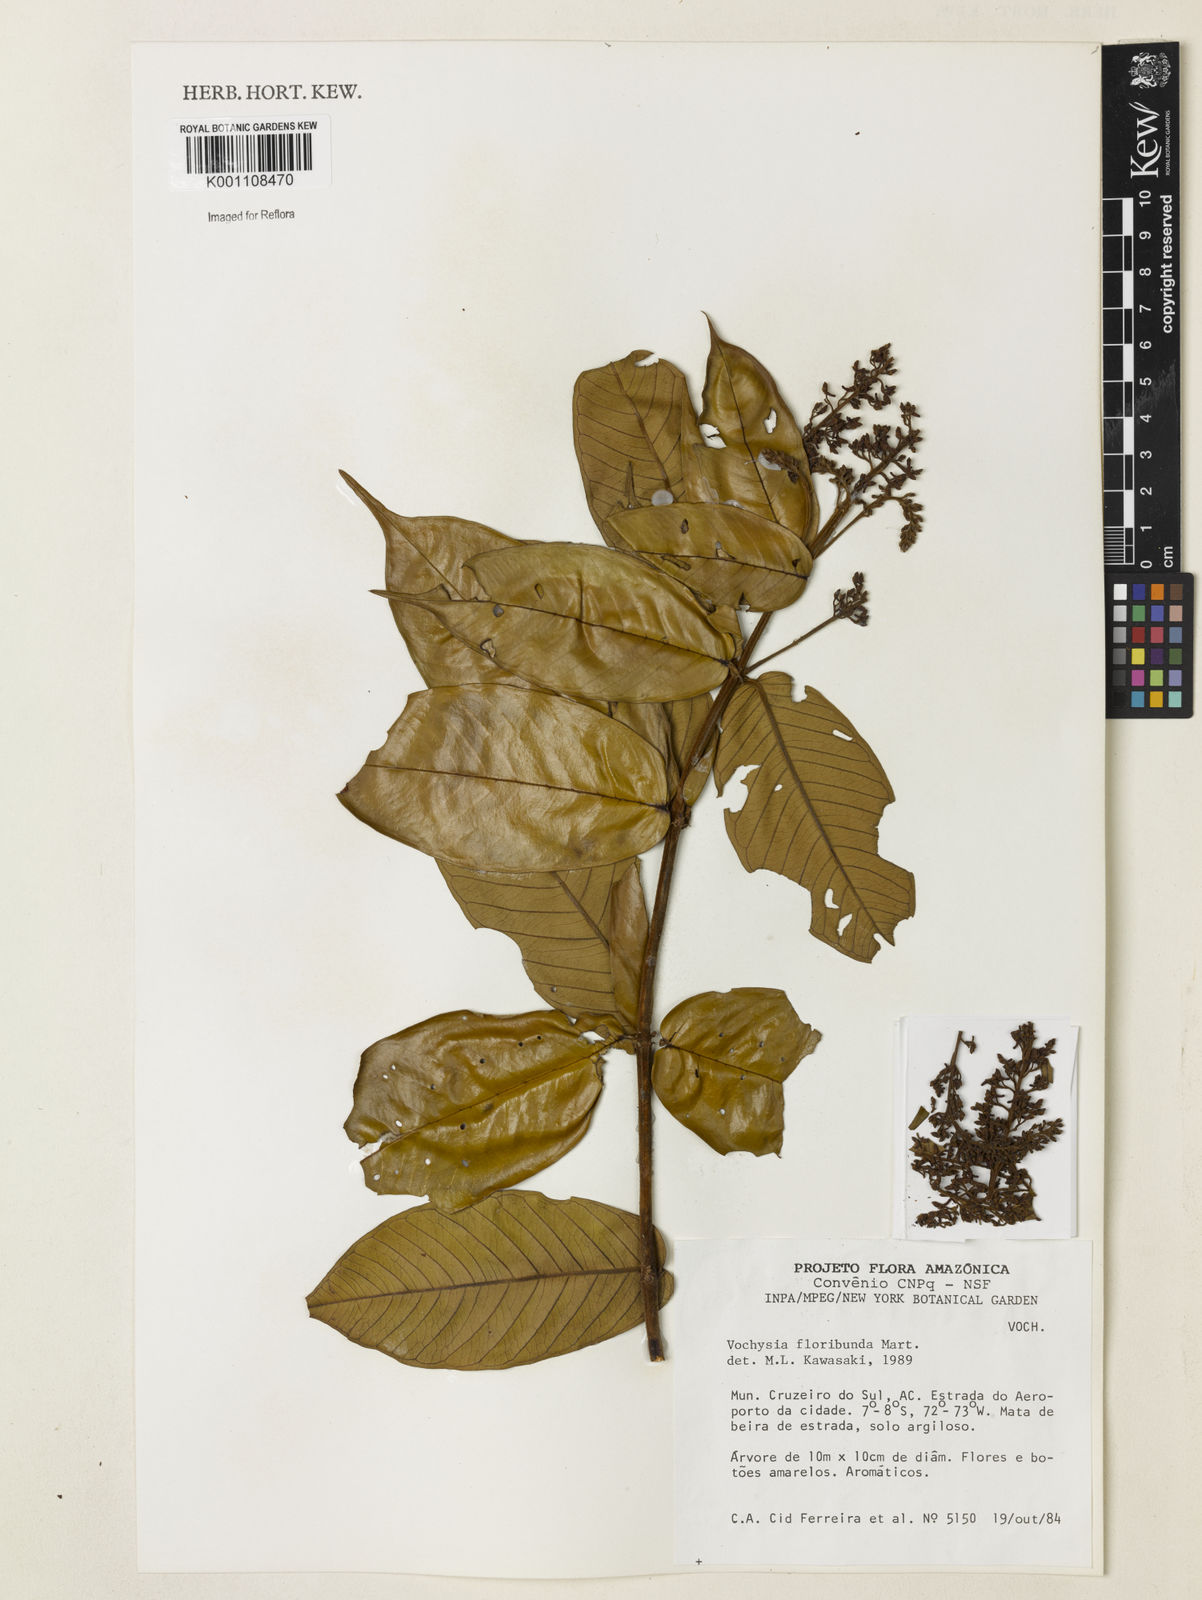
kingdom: Plantae
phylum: Tracheophyta
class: Magnoliopsida
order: Myrtales
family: Vochysiaceae
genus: Vochysia
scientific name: Vochysia floribunda
